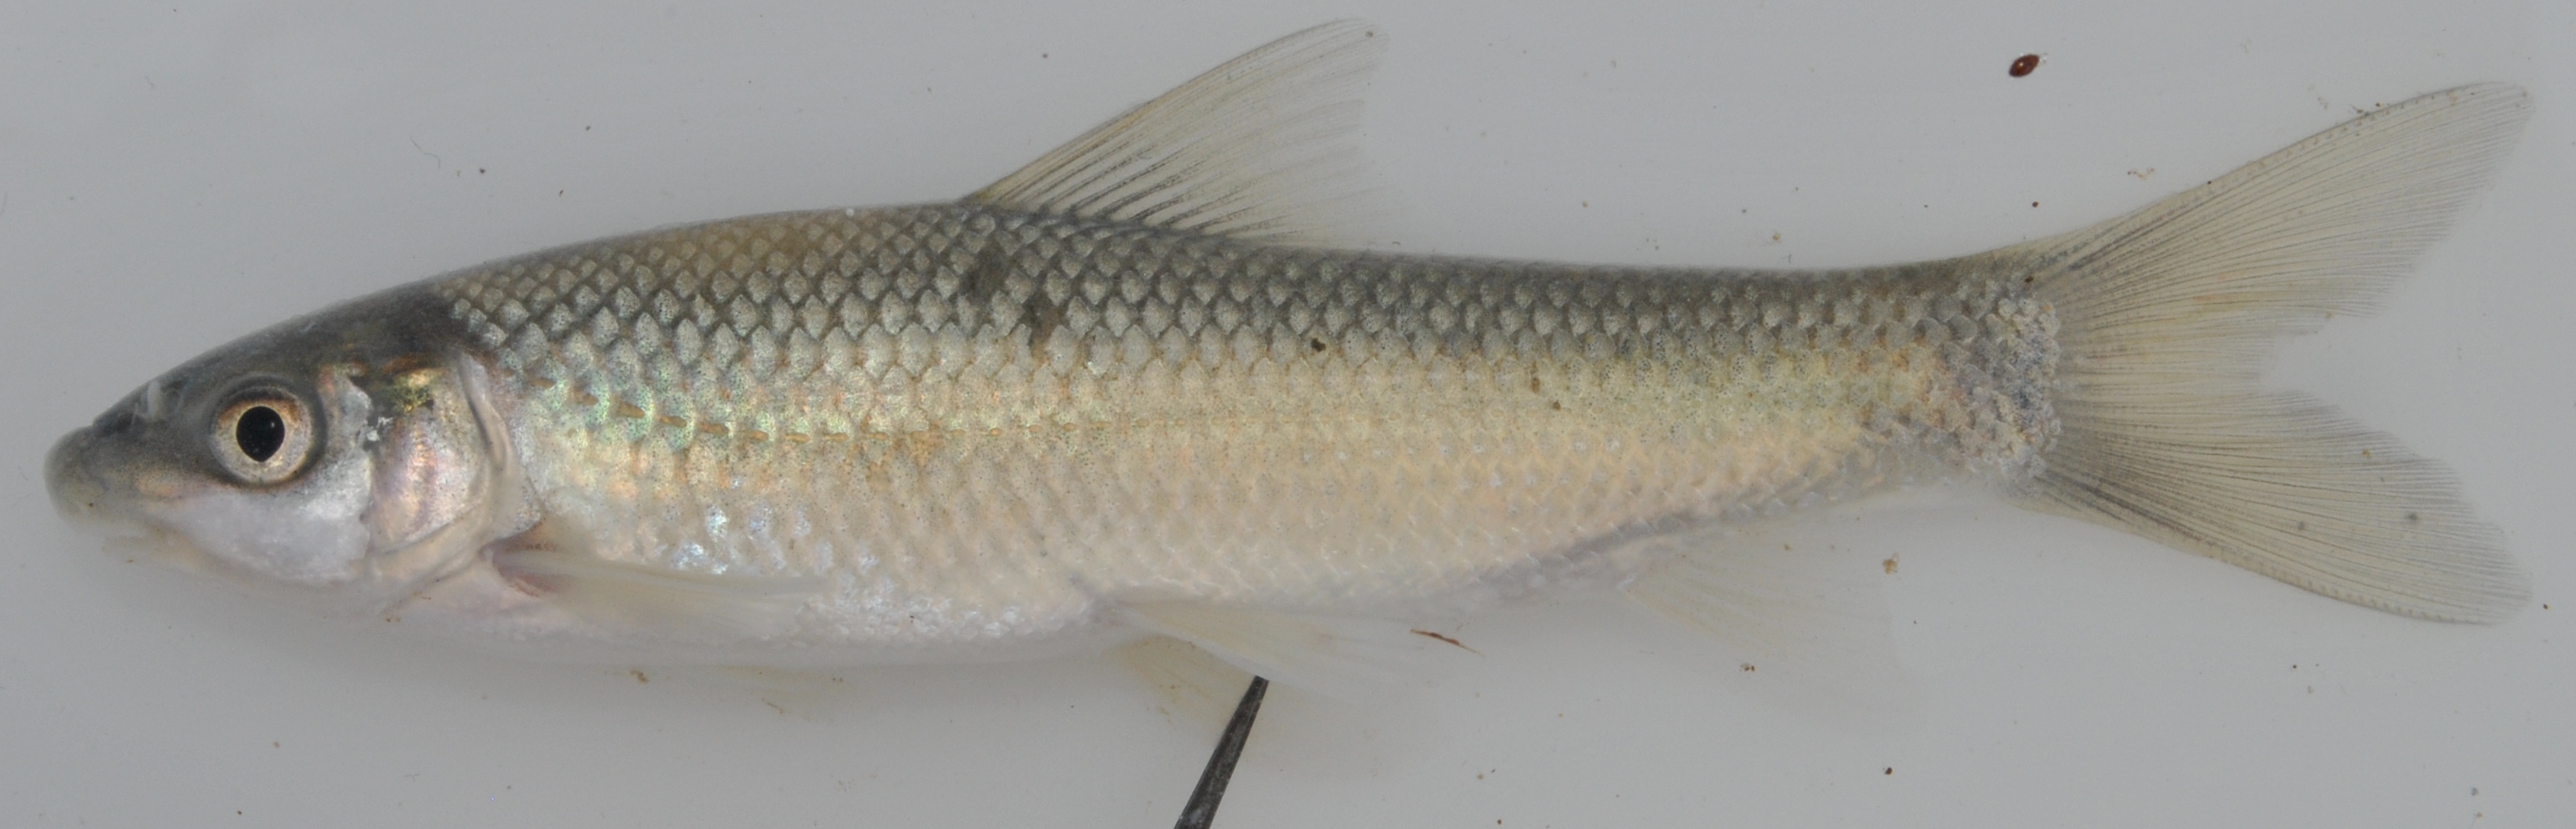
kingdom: Animalia
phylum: Chordata
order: Cypriniformes
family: Cyprinidae
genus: Labeo
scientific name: Labeo rubromaculatus
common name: Tugela labeo
